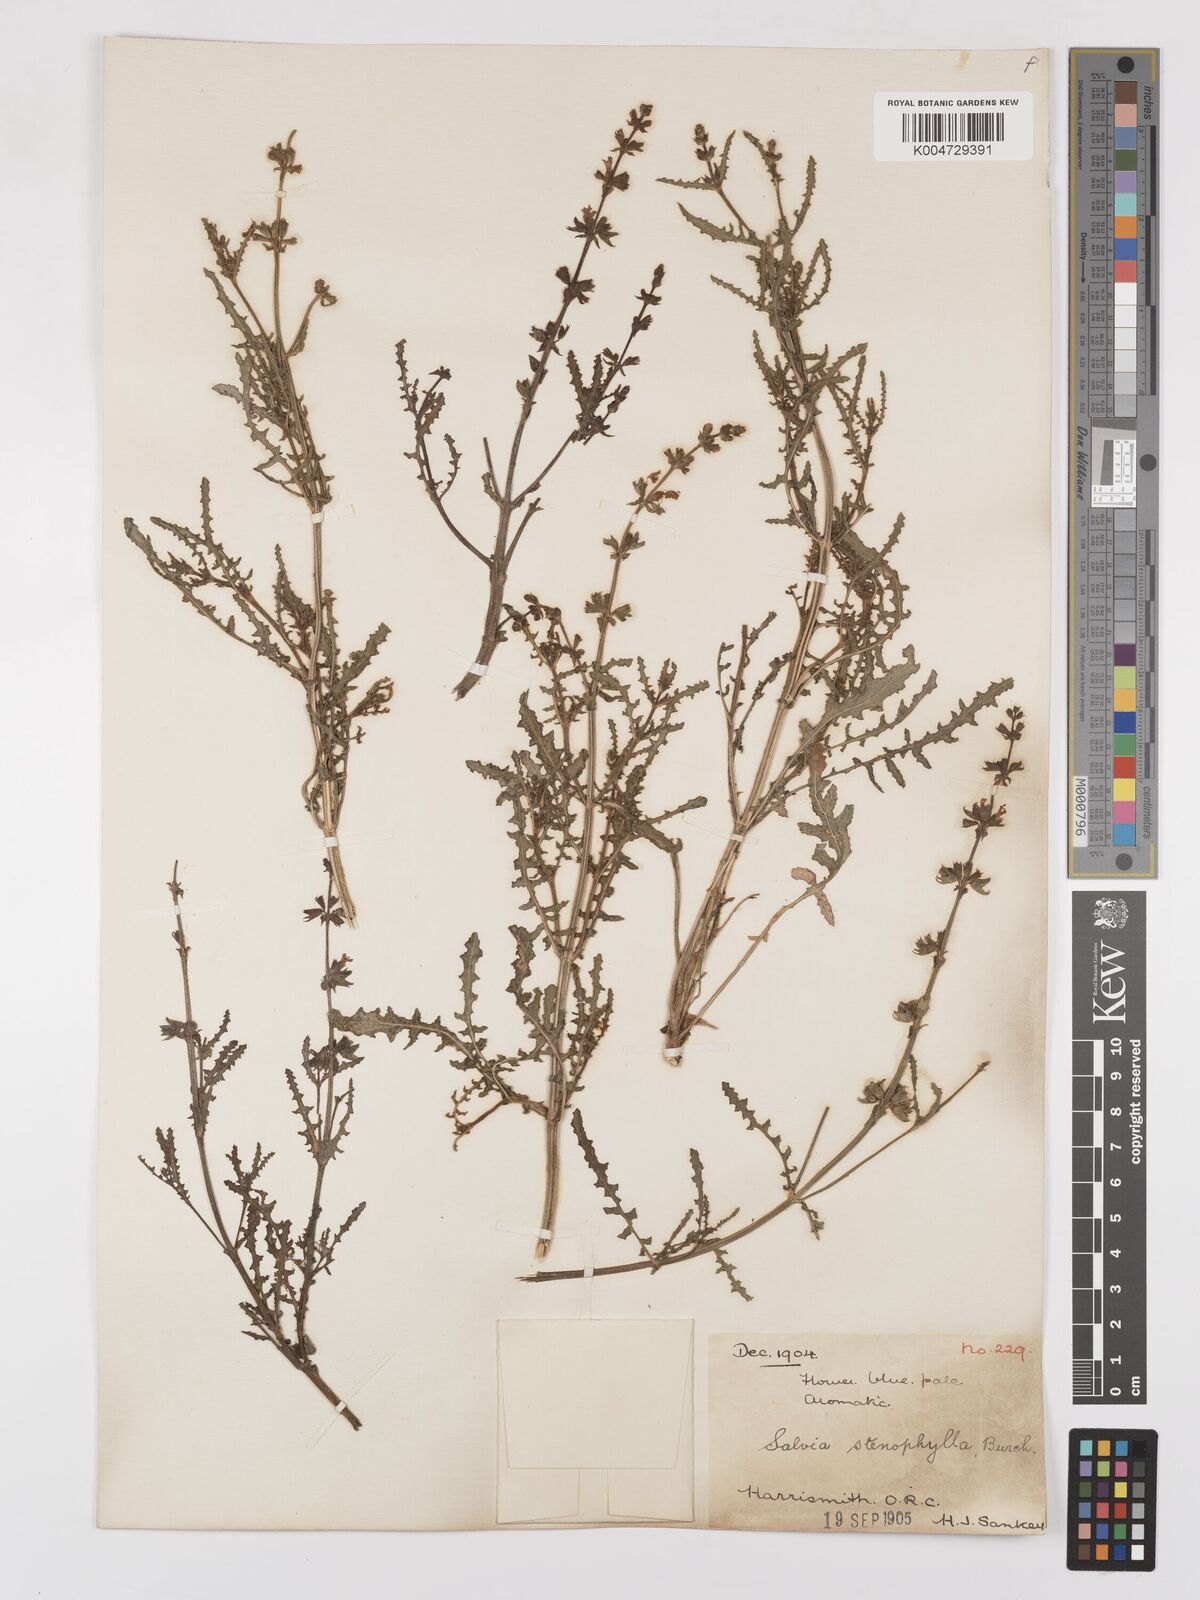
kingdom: Plantae
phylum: Tracheophyta
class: Magnoliopsida
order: Lamiales
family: Lamiaceae
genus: Salvia
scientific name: Salvia stenophylla
